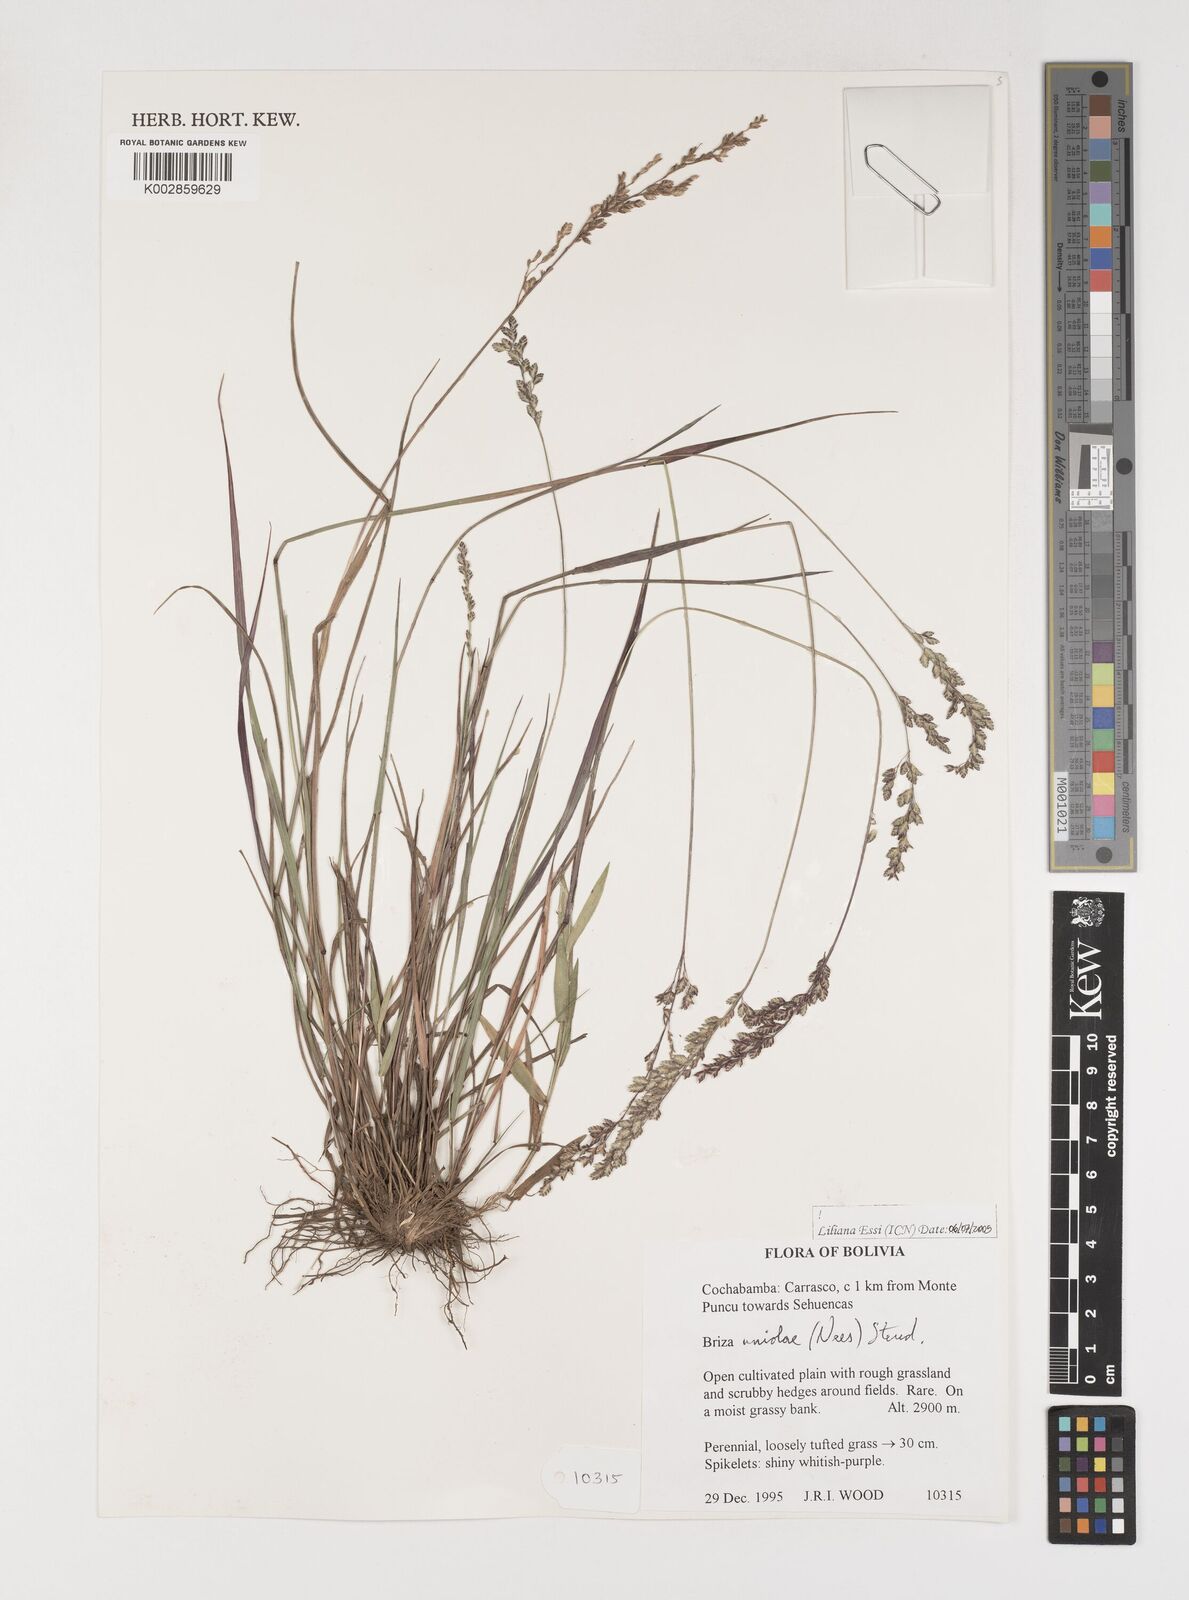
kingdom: Plantae
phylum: Tracheophyta
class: Liliopsida
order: Poales
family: Poaceae
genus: Poidium
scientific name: Poidium uniolae
